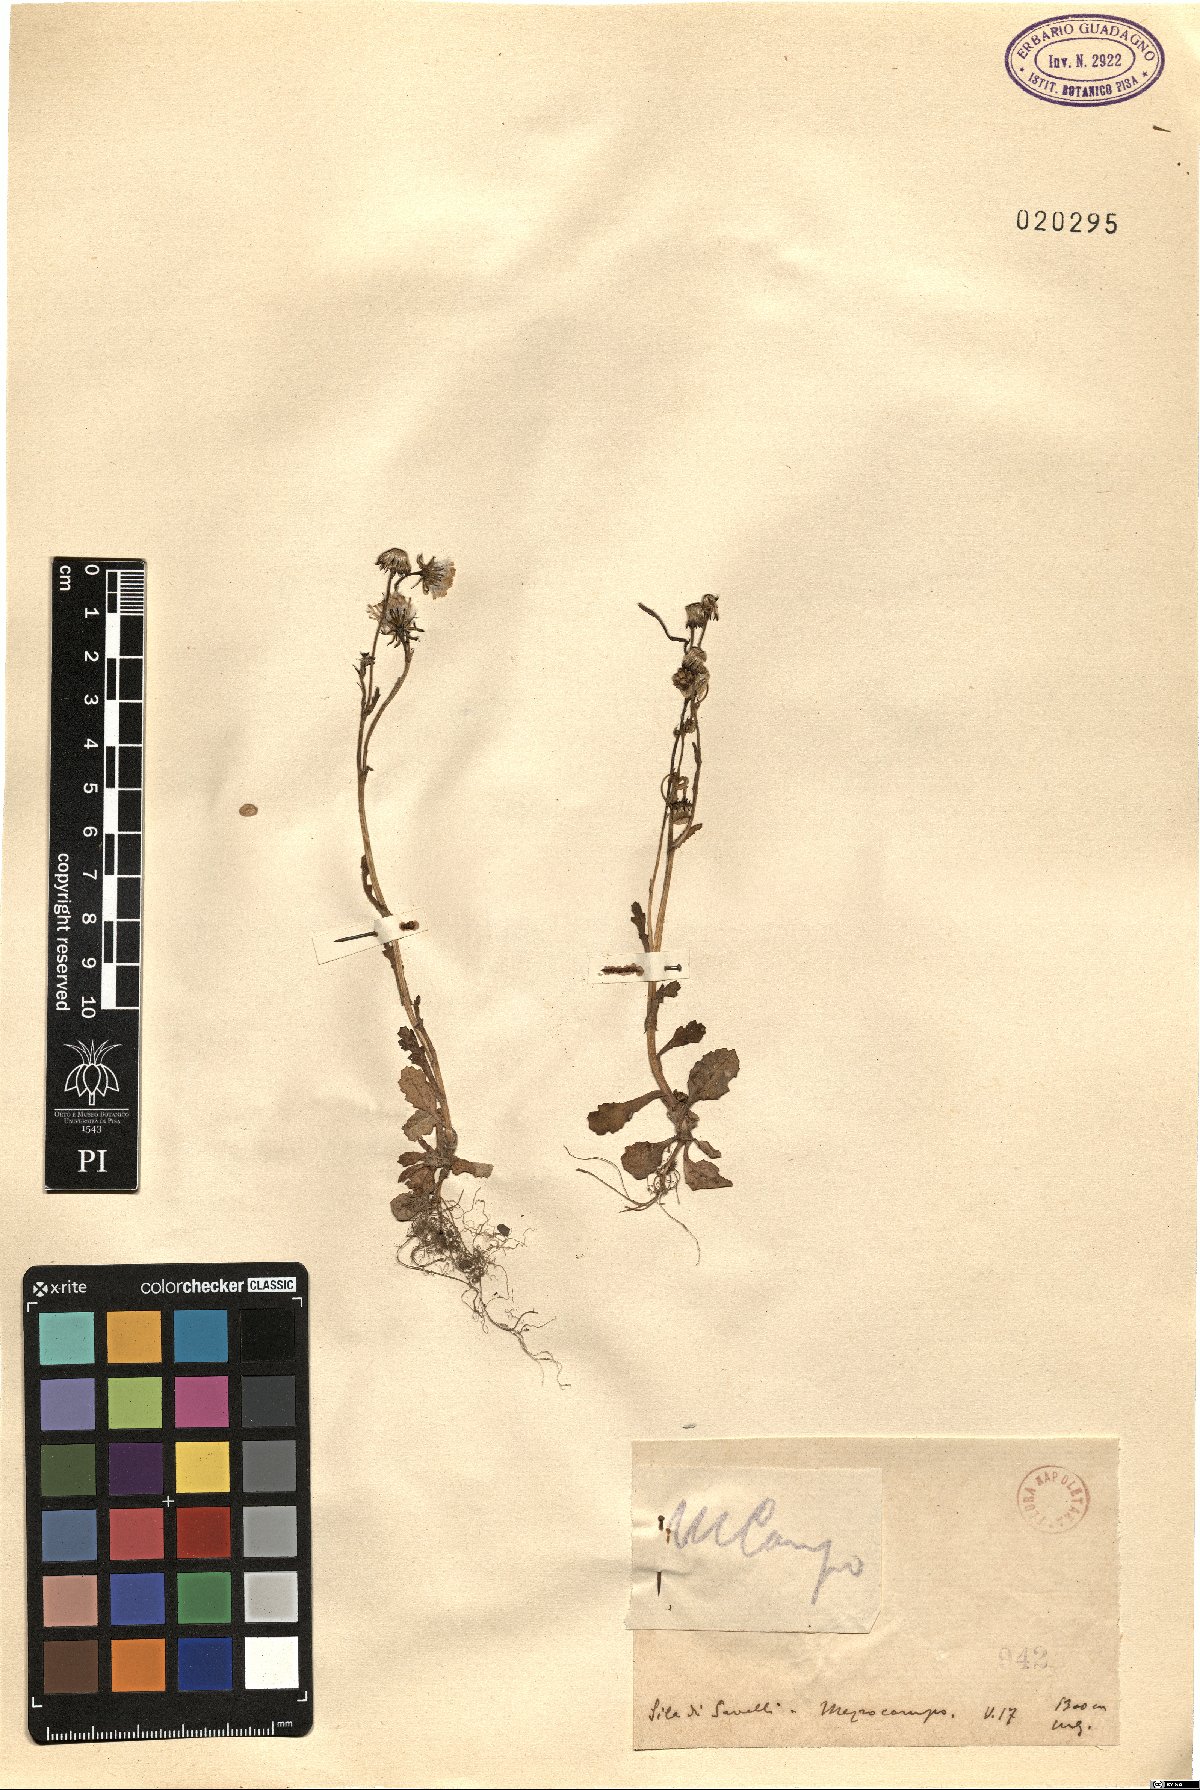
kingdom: Plantae
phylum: Tracheophyta
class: Magnoliopsida
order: Asterales
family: Asteraceae
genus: Senecio
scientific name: Senecio
